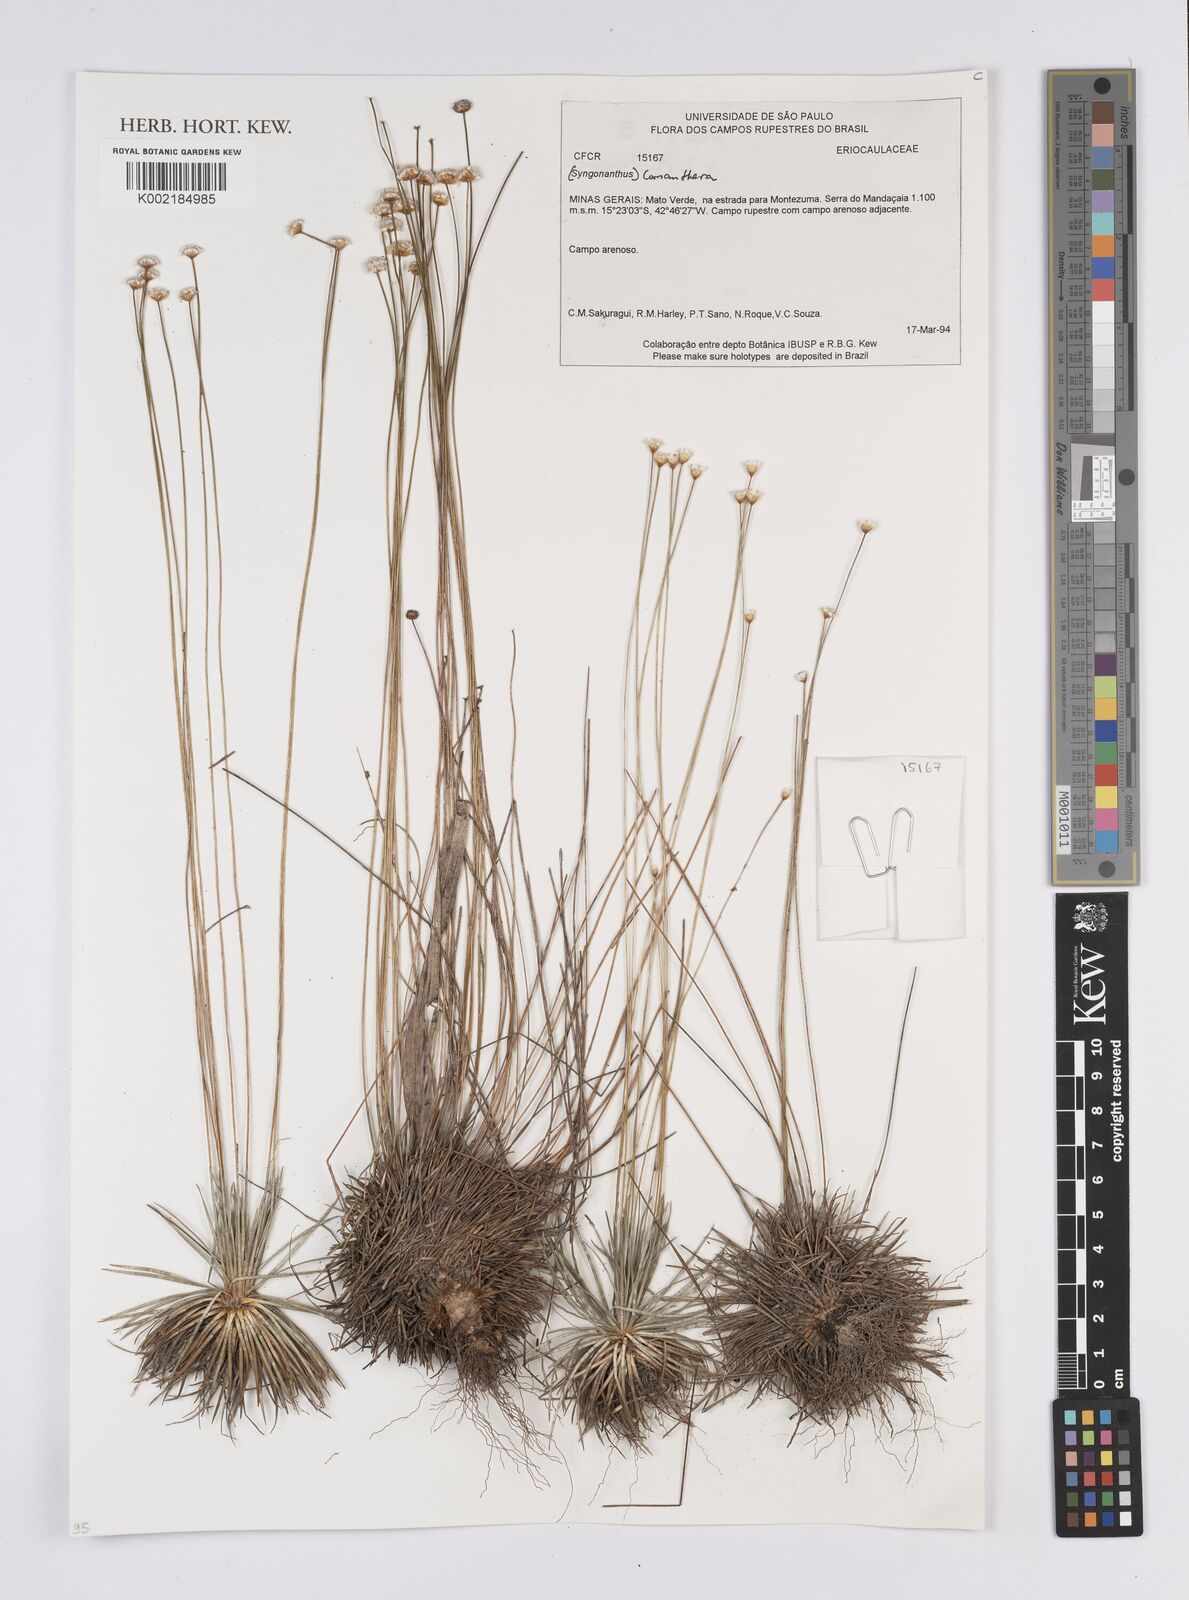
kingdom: Plantae
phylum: Tracheophyta
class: Liliopsida
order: Poales
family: Eriocaulaceae
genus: Comanthera
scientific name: Comanthera
